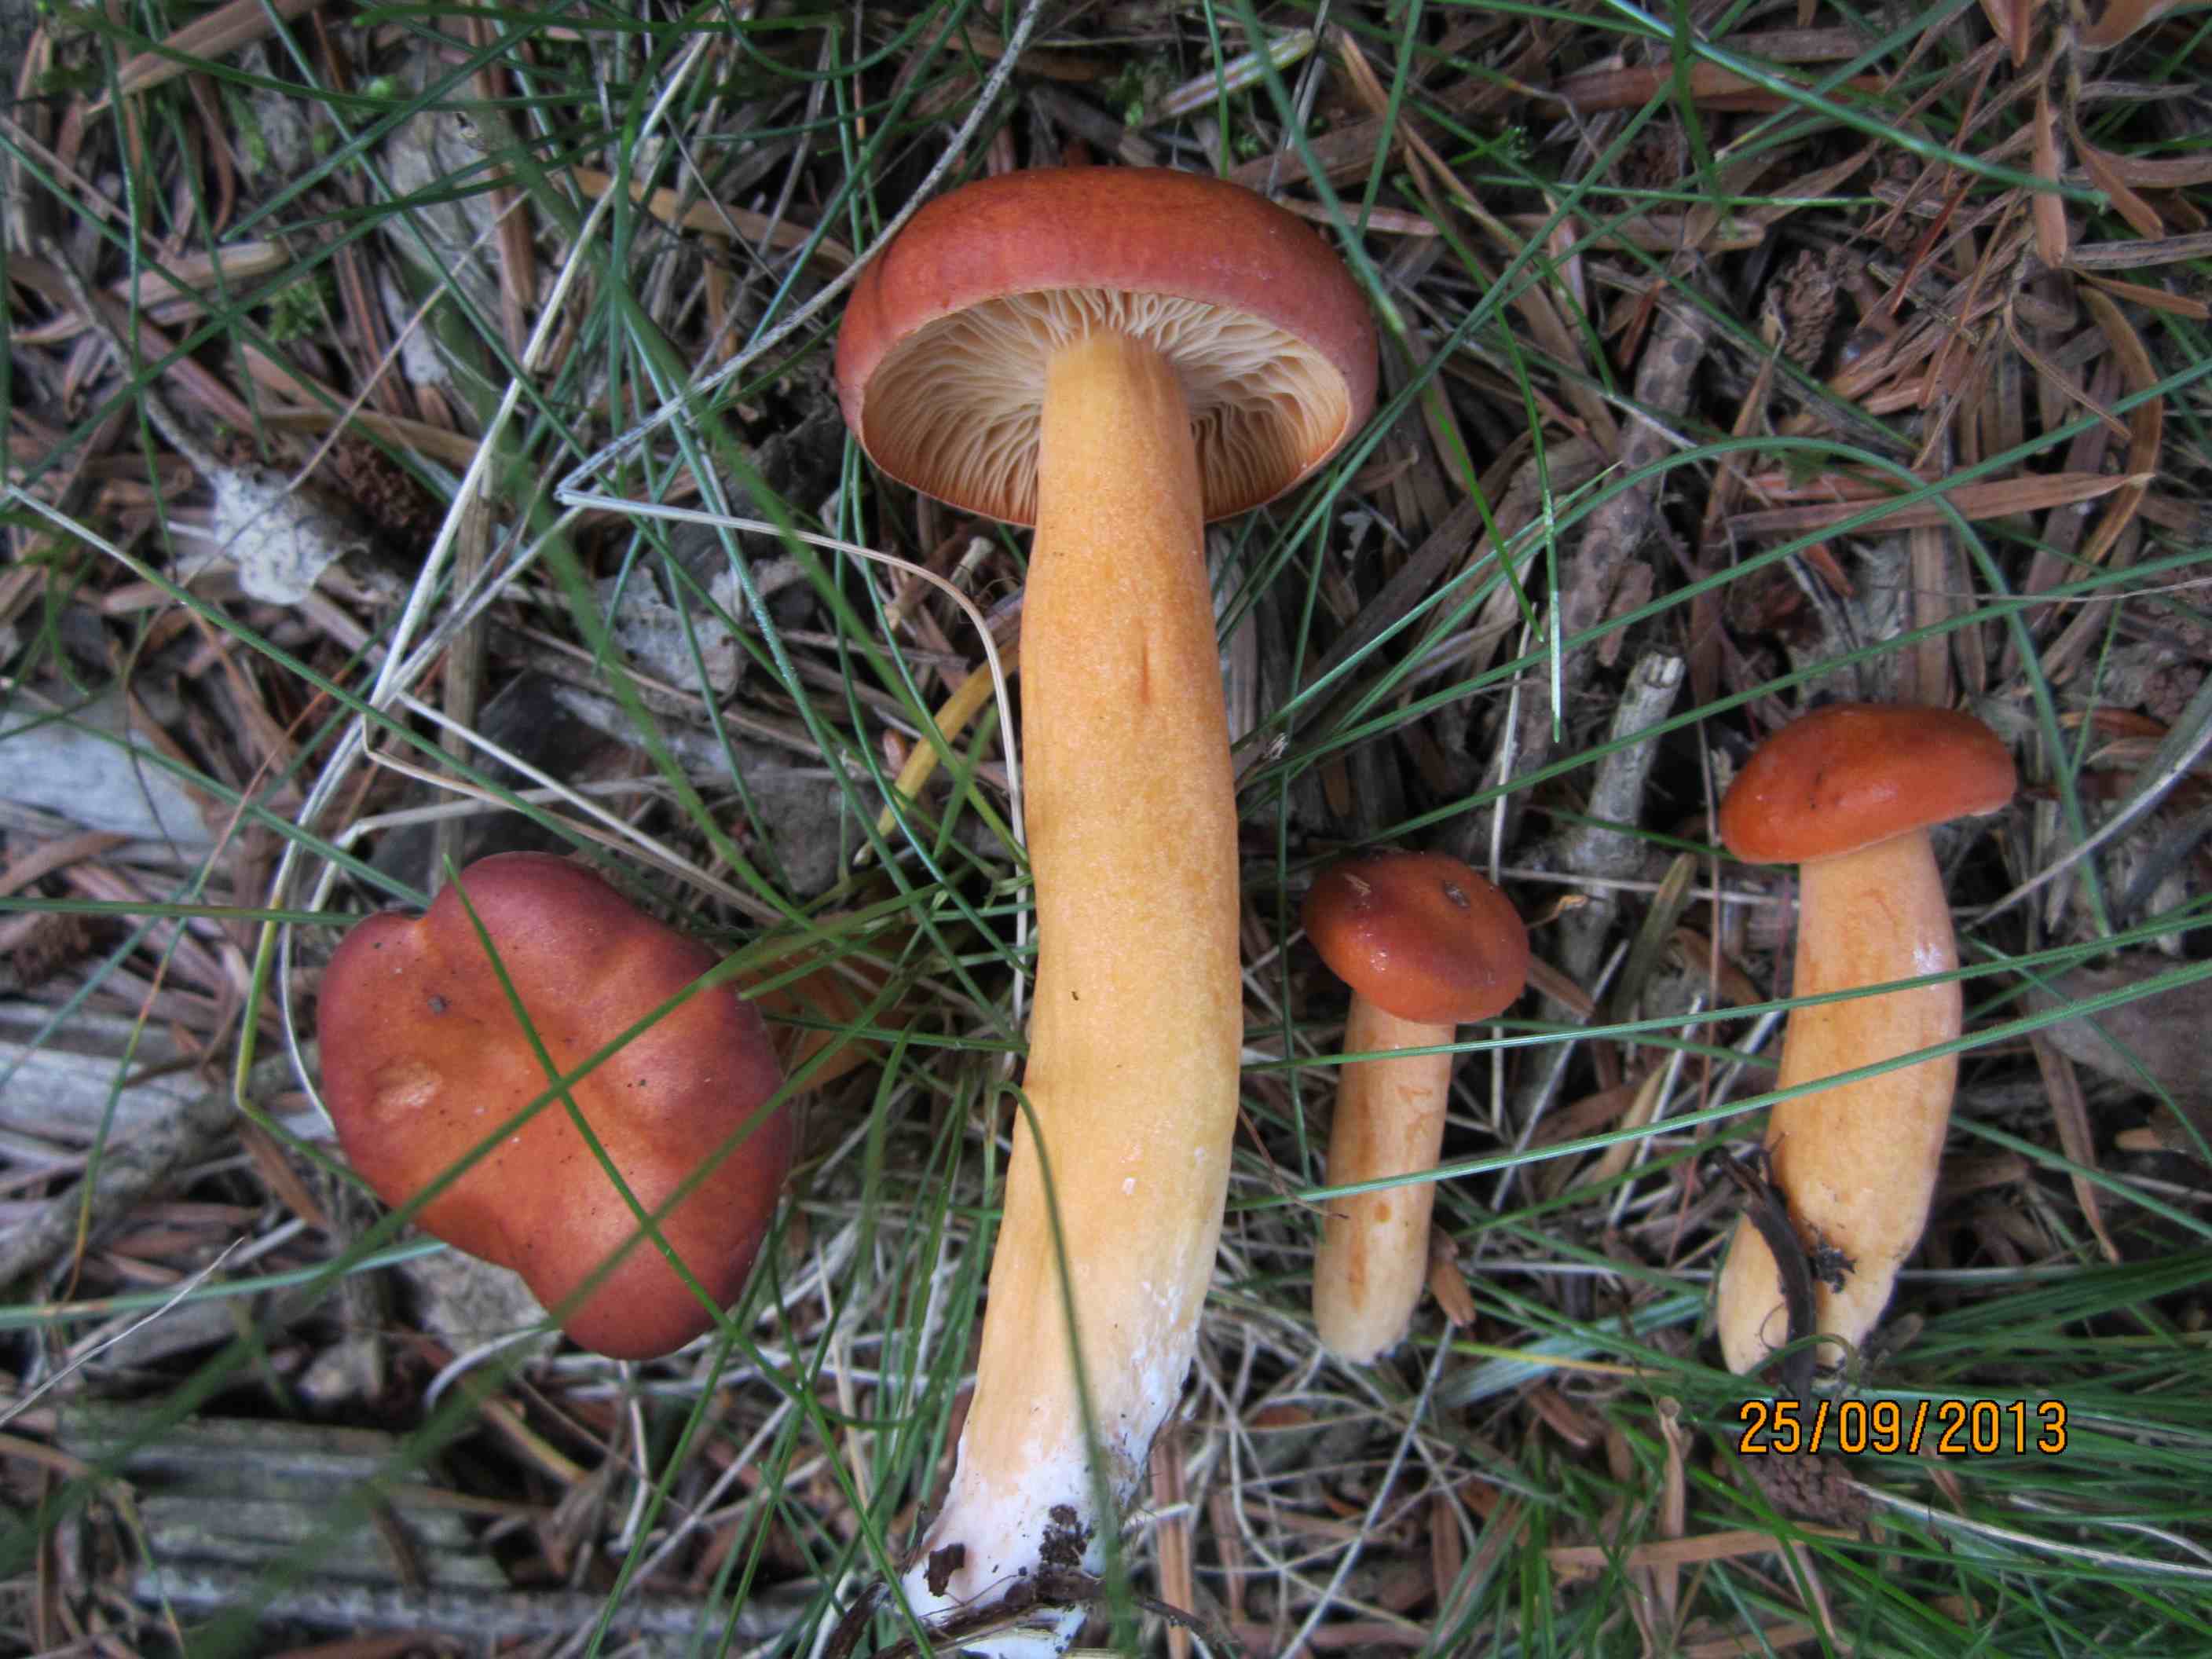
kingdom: Fungi
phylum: Basidiomycota
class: Agaricomycetes
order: Russulales
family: Russulaceae
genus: Lactarius
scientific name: Lactarius aurantiacus
